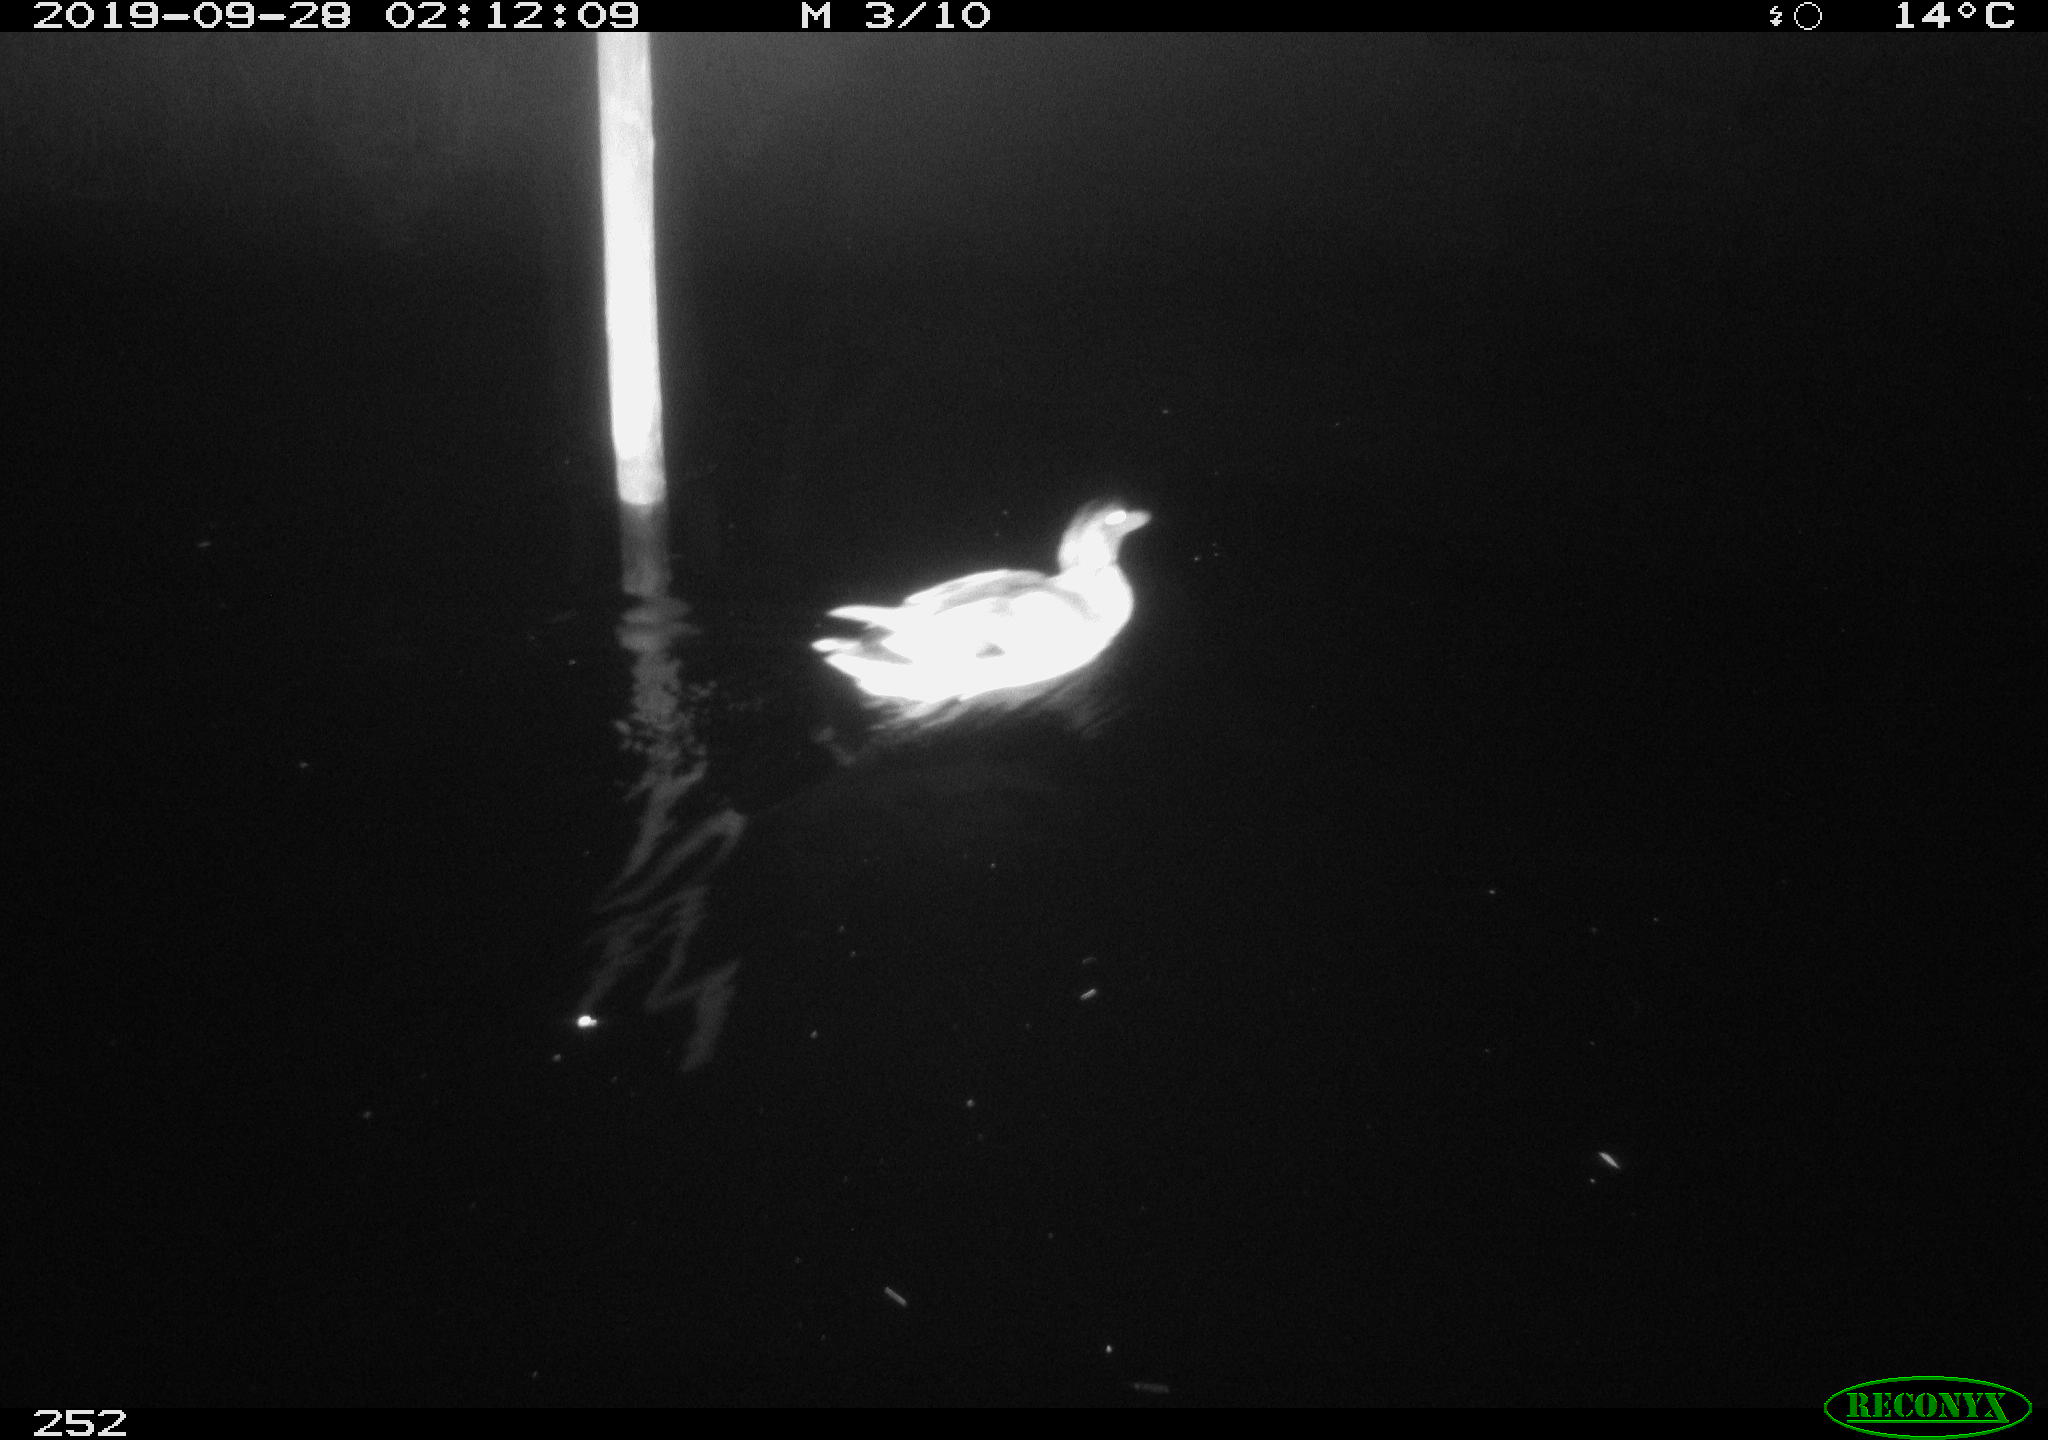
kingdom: Animalia
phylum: Chordata
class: Aves
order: Anseriformes
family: Anatidae
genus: Anas
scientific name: Anas platyrhynchos
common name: Mallard
